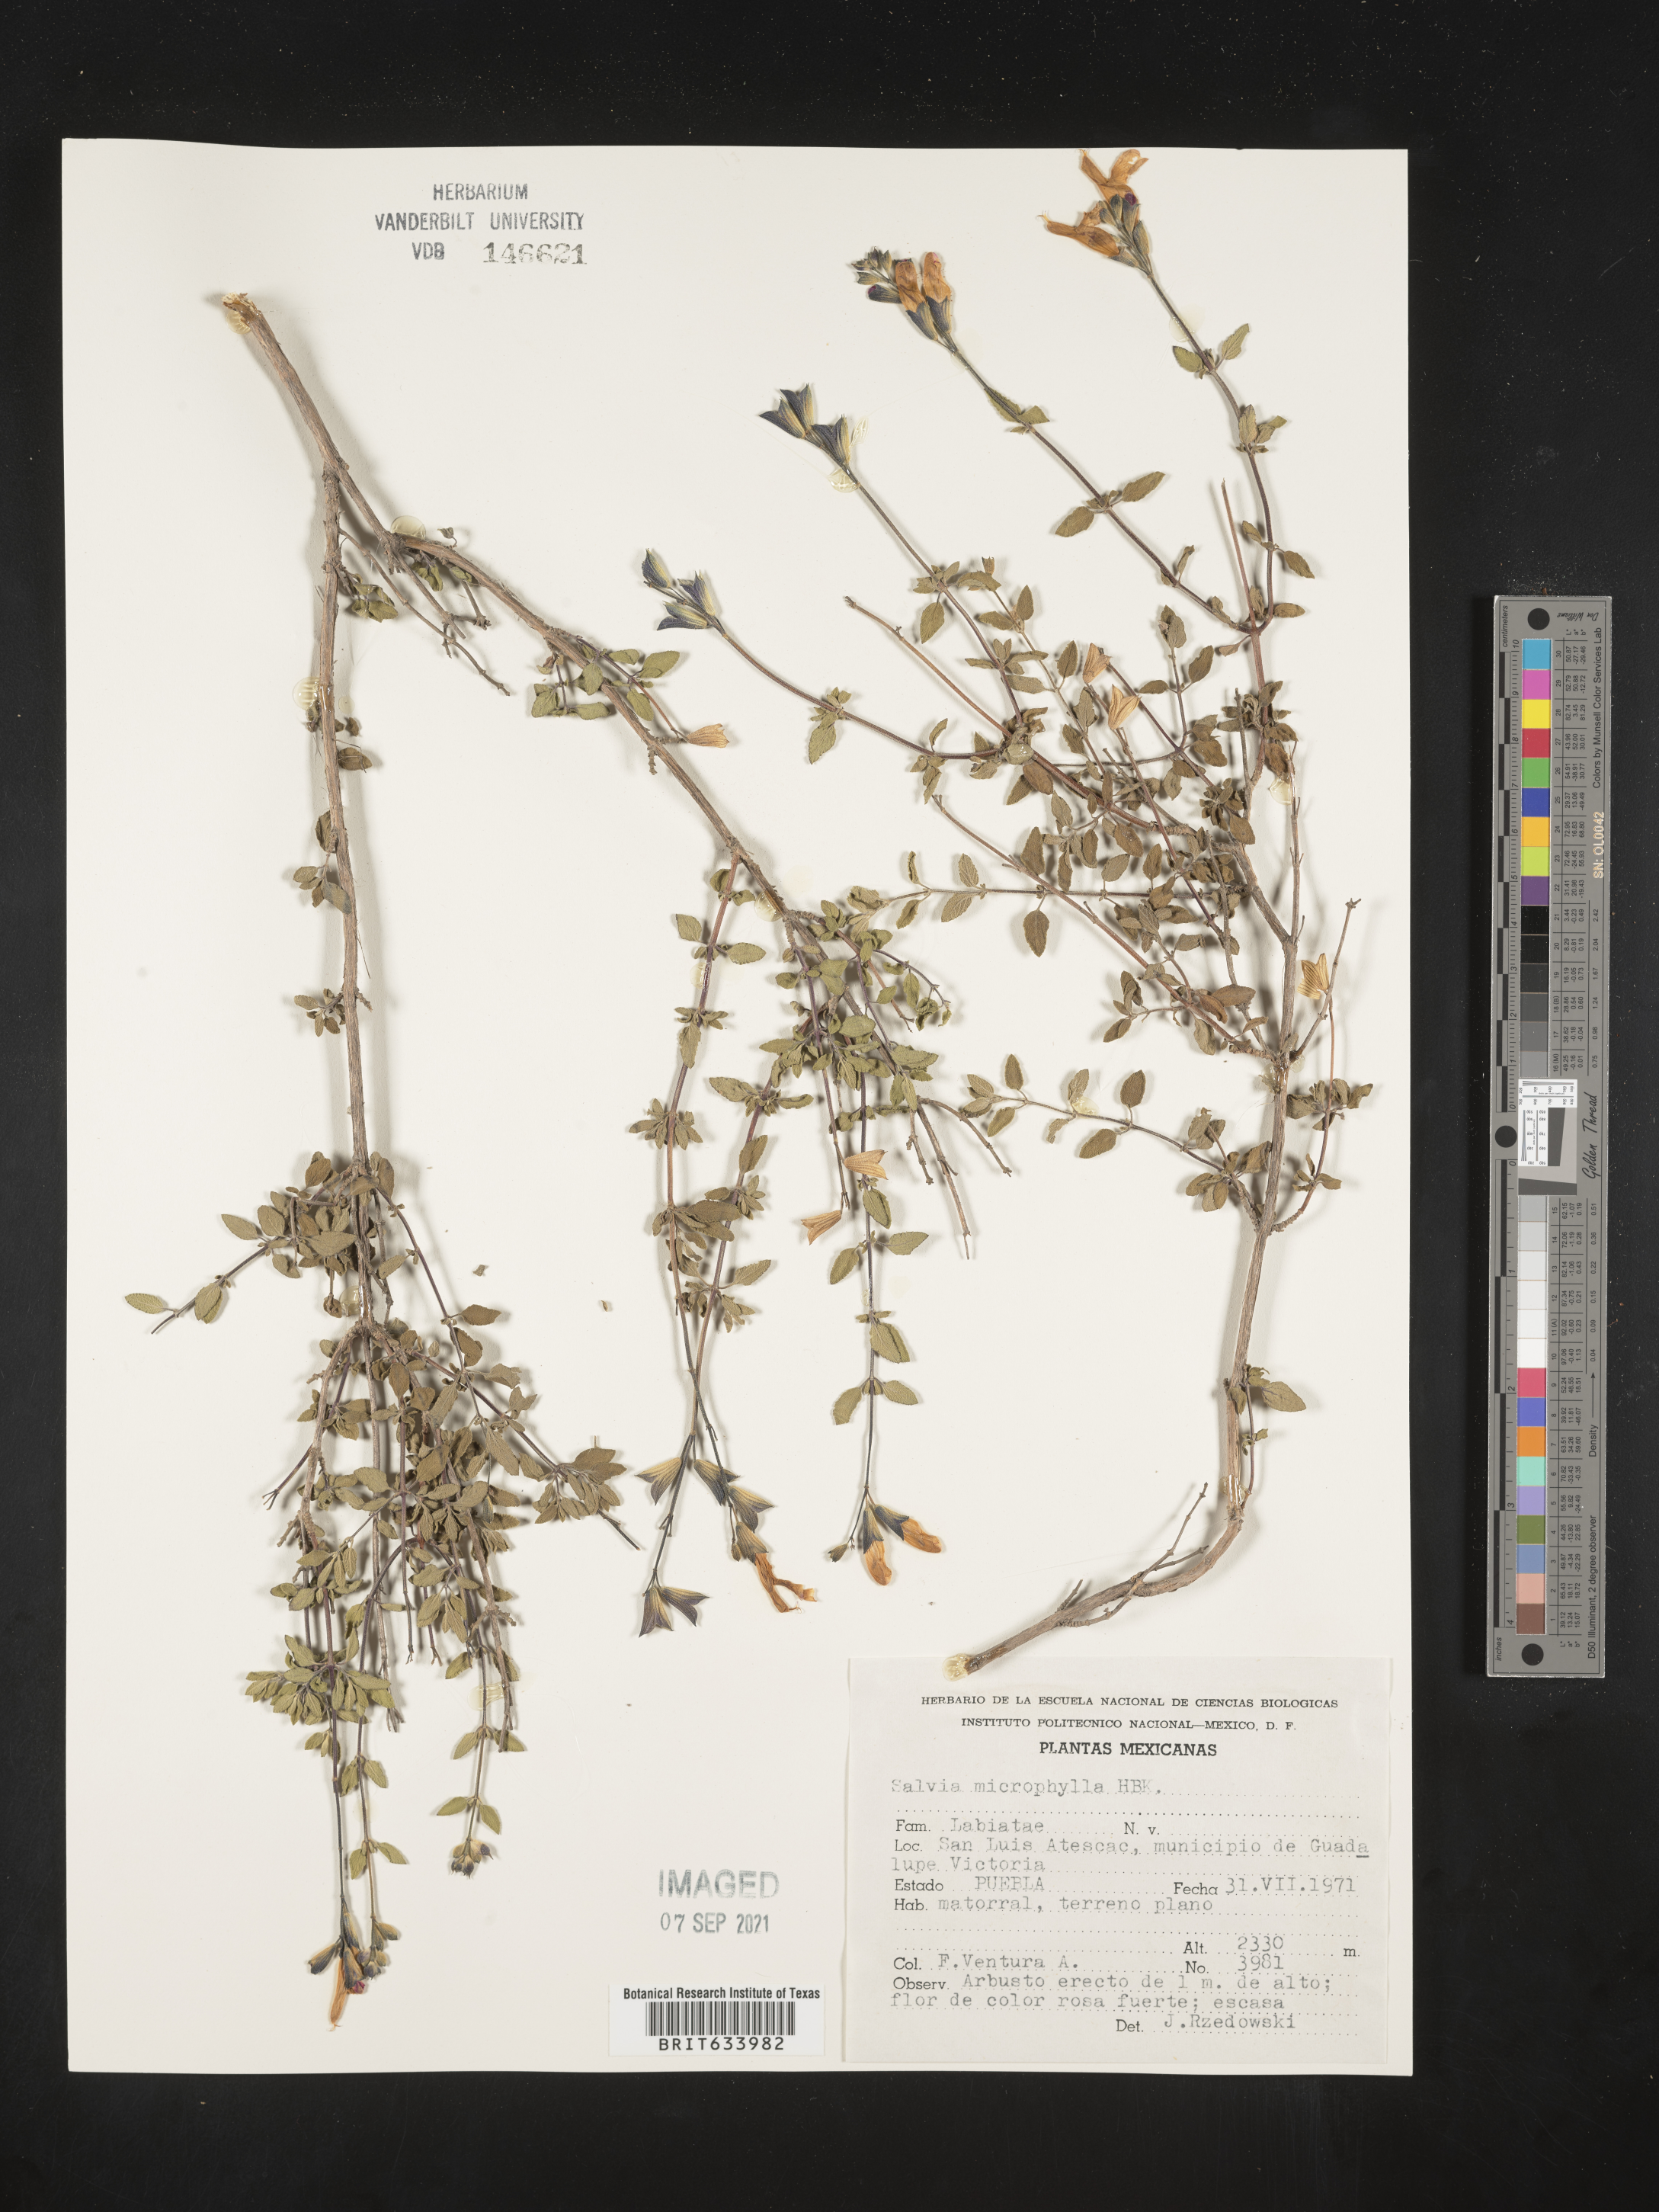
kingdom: Plantae
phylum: Tracheophyta
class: Magnoliopsida
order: Lamiales
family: Lamiaceae
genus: Salvia
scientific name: Salvia
